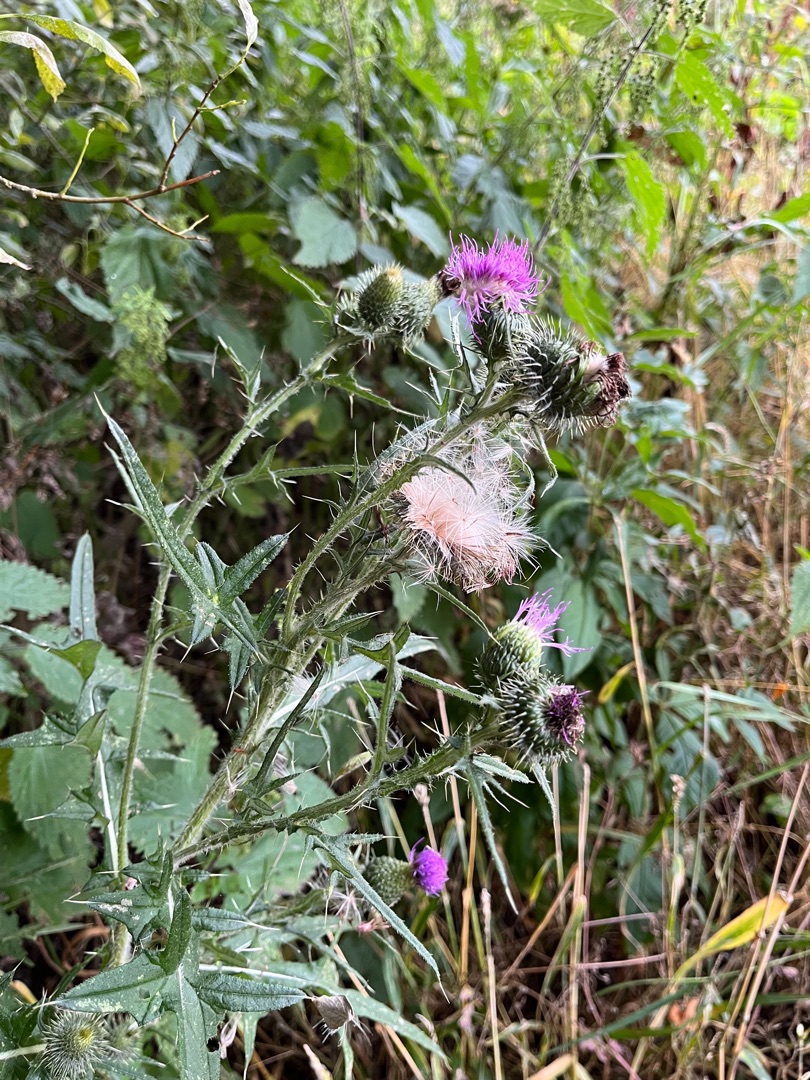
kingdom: Plantae
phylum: Tracheophyta
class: Magnoliopsida
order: Asterales
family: Asteraceae
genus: Cirsium
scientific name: Cirsium vulgare
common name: Horse-tidsel
